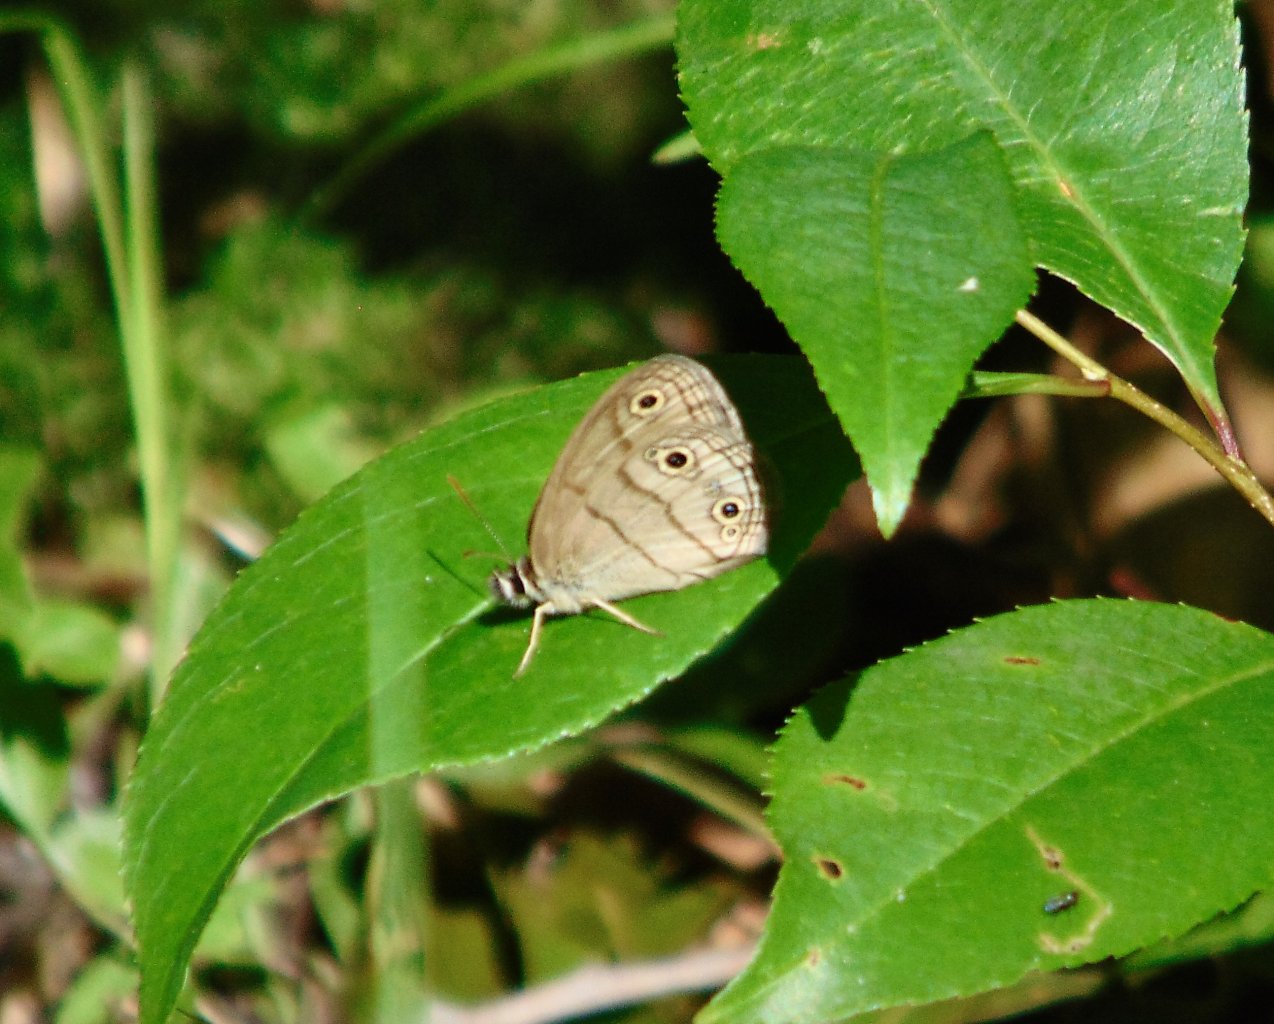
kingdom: Animalia
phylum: Arthropoda
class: Insecta
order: Lepidoptera
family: Nymphalidae
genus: Euptychia
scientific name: Euptychia cymela
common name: Little Wood Satyr
